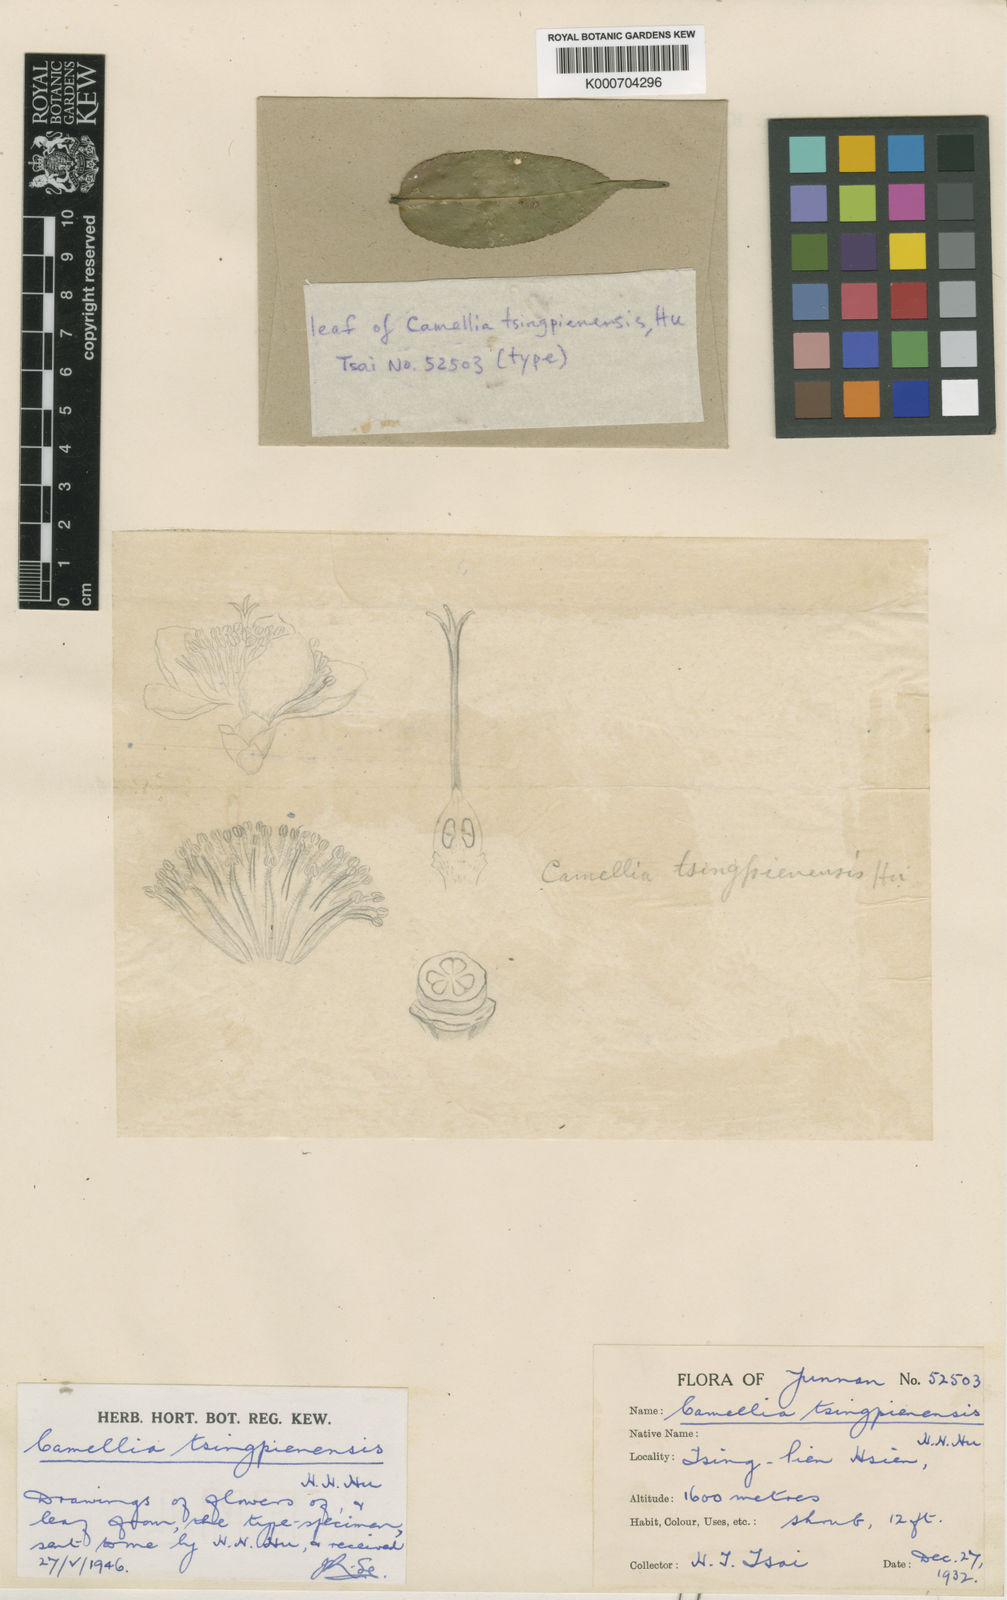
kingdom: Plantae
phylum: Tracheophyta
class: Magnoliopsida
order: Ericales
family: Theaceae
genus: Camellia
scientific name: Camellia tsingpienensis
